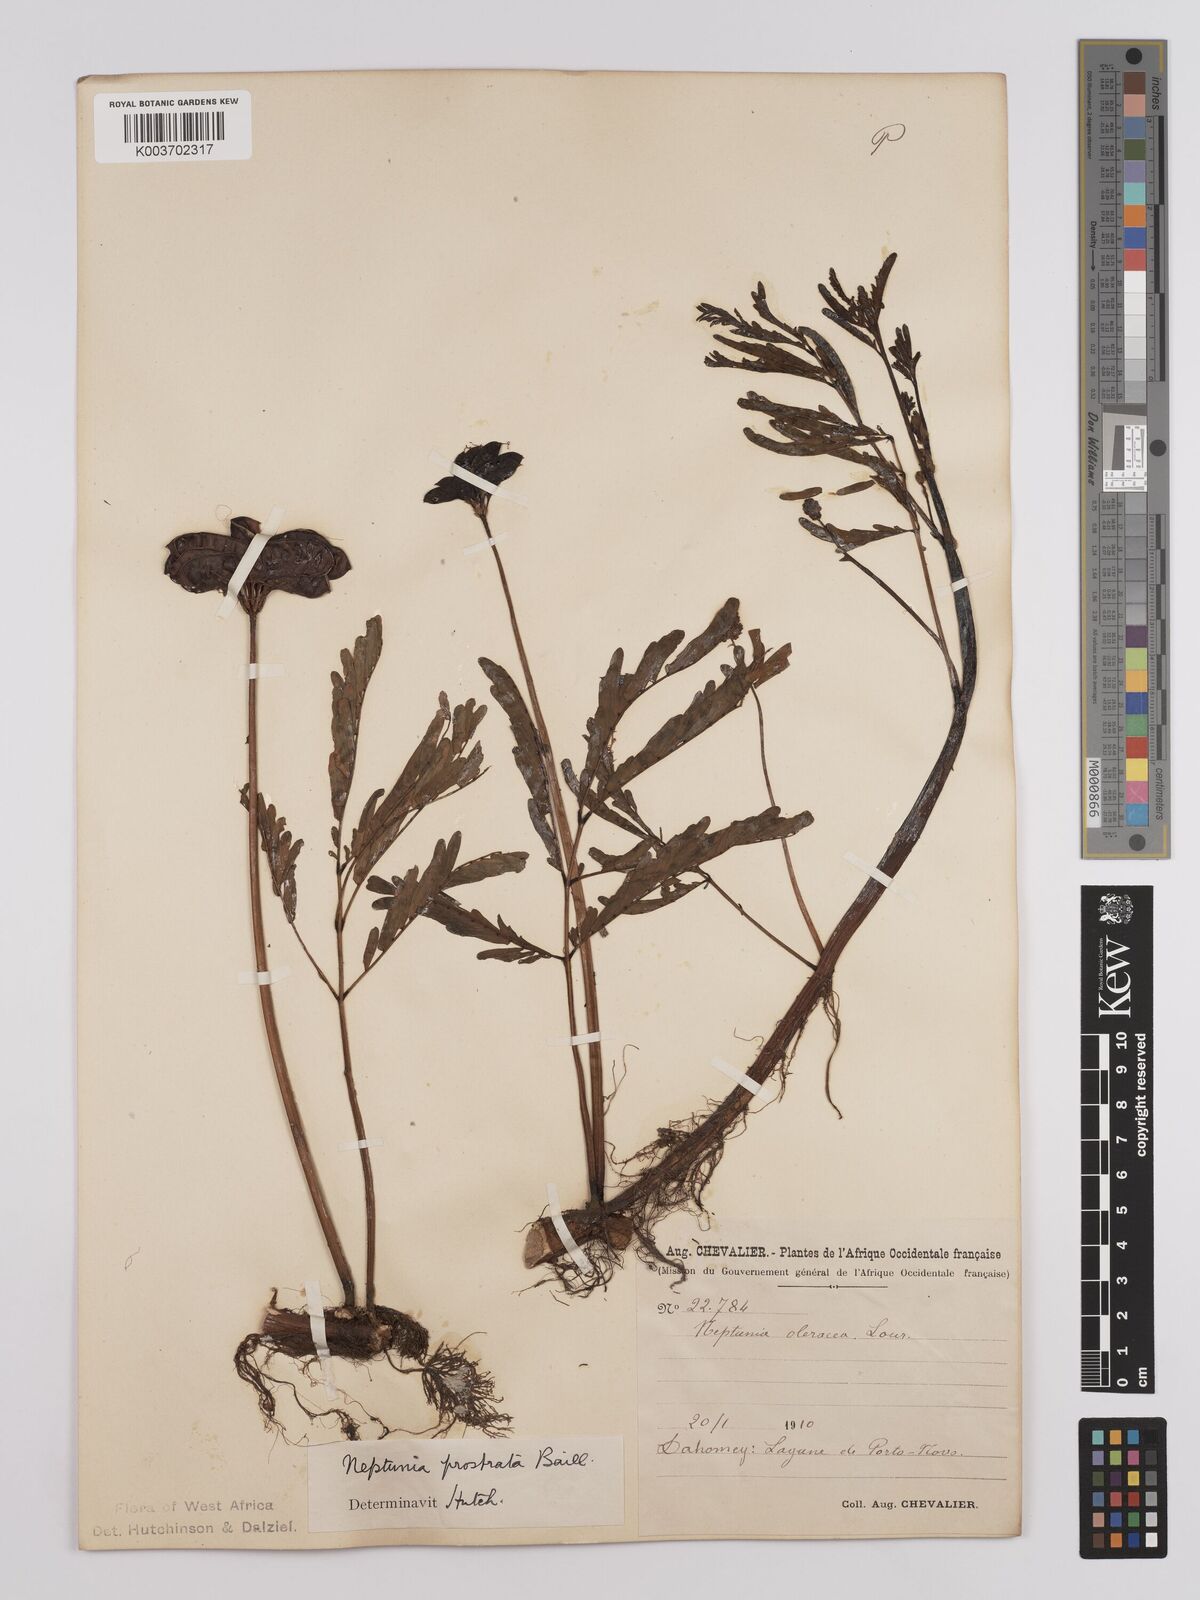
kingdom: Plantae
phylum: Tracheophyta
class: Magnoliopsida
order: Fabales
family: Fabaceae
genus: Neptunia
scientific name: Neptunia prostrata
